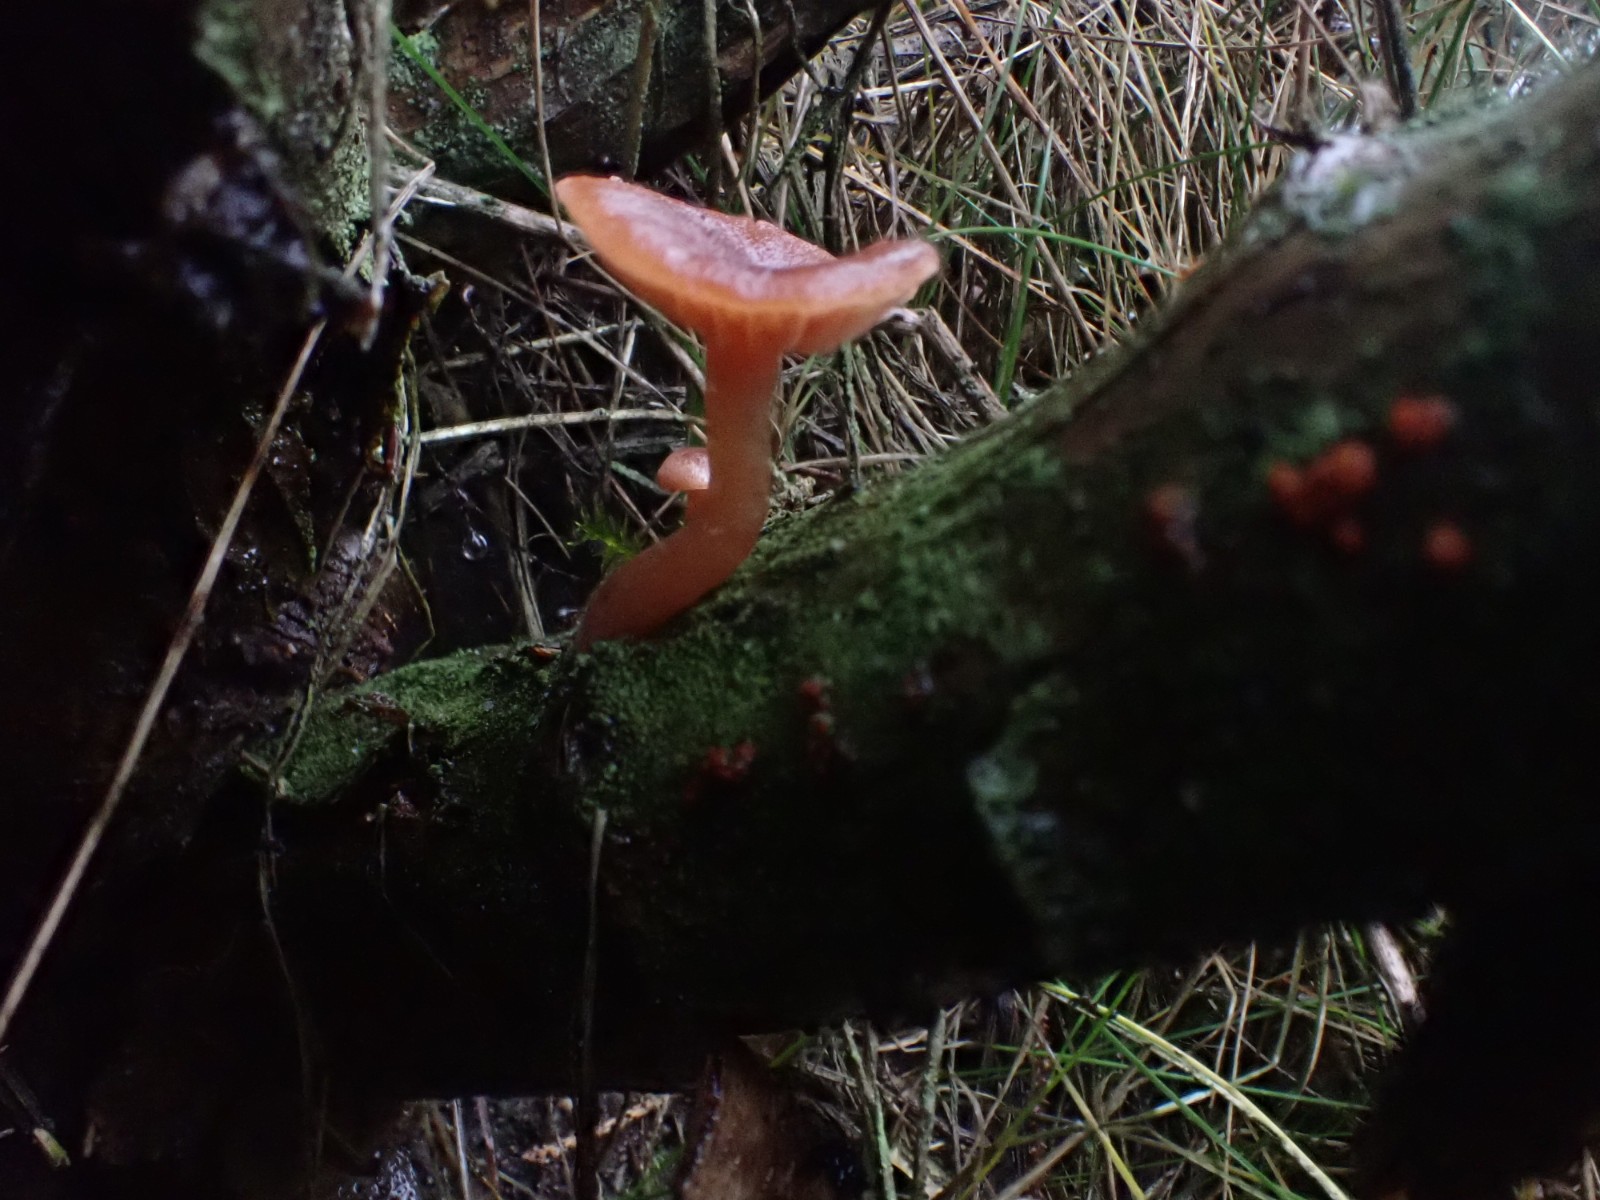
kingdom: Fungi
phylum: Basidiomycota
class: Agaricomycetes
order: Agaricales
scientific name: Agaricales
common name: champignonordenen
